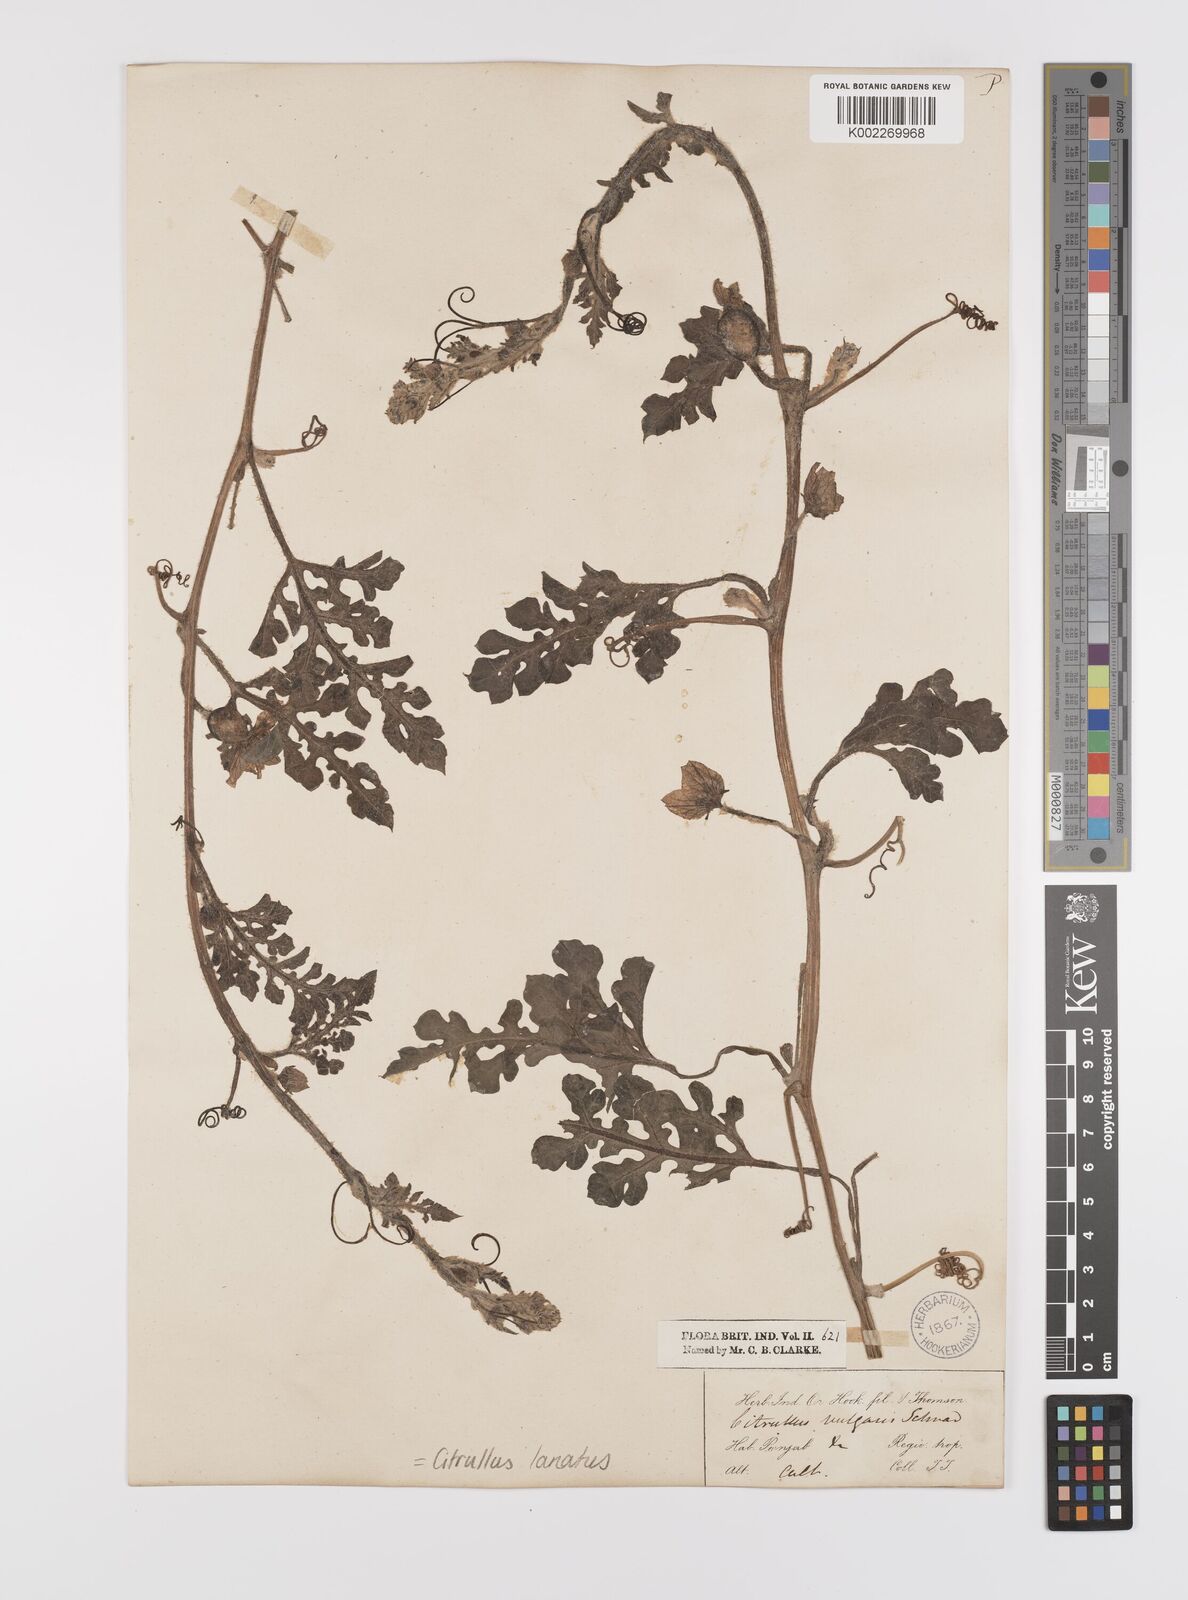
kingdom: Plantae
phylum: Tracheophyta
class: Magnoliopsida
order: Cucurbitales
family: Cucurbitaceae
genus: Citrullus
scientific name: Citrullus lanatus
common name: Watermelon
